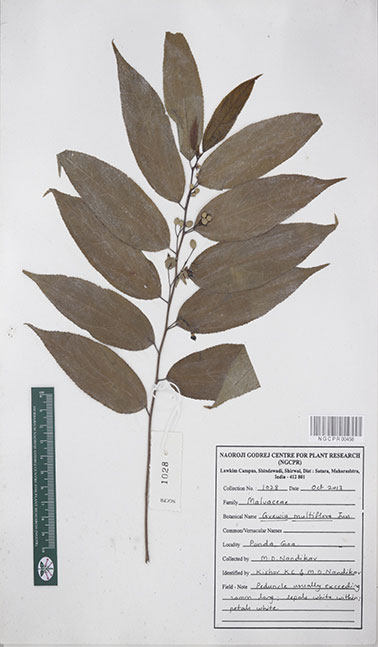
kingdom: Plantae
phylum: Tracheophyta
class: Magnoliopsida
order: Malvales
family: Malvaceae
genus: Grewia
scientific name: Grewia multiflora
